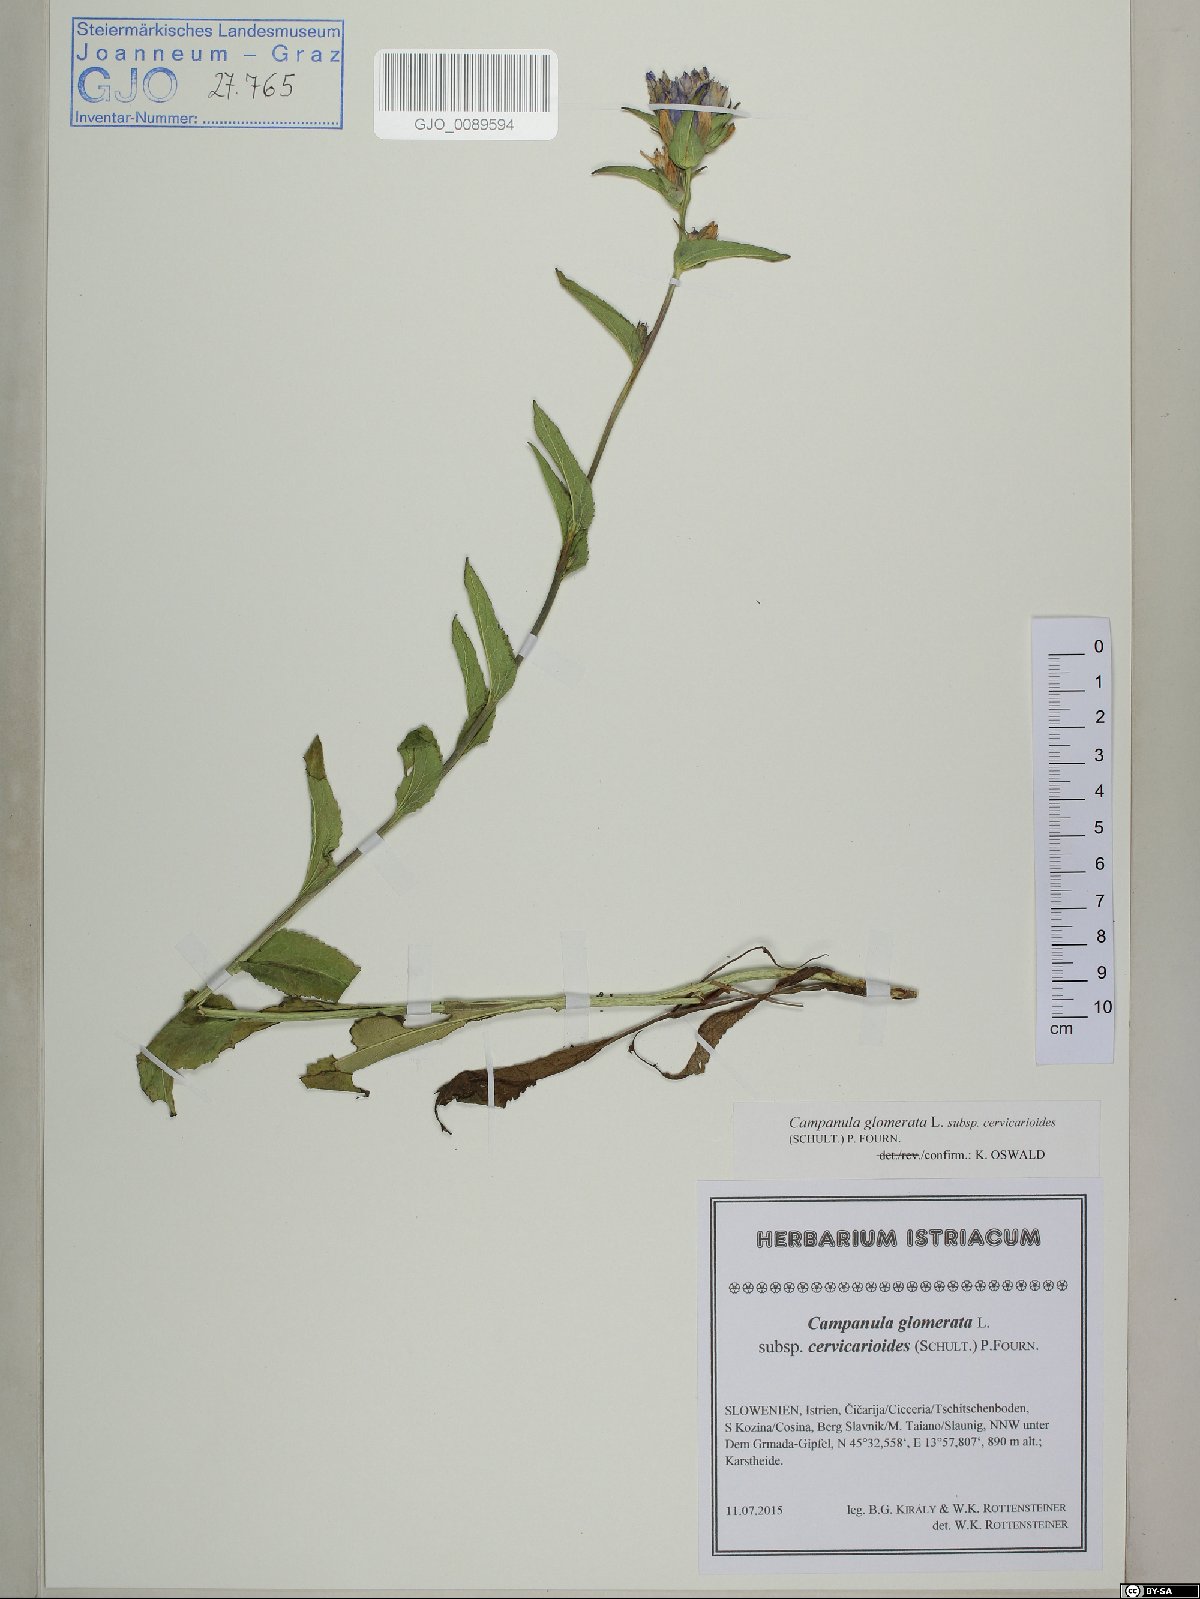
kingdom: Plantae
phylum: Tracheophyta
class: Magnoliopsida
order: Asterales
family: Campanulaceae
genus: Campanula
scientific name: Campanula glomerata
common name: Clustered bellflower
